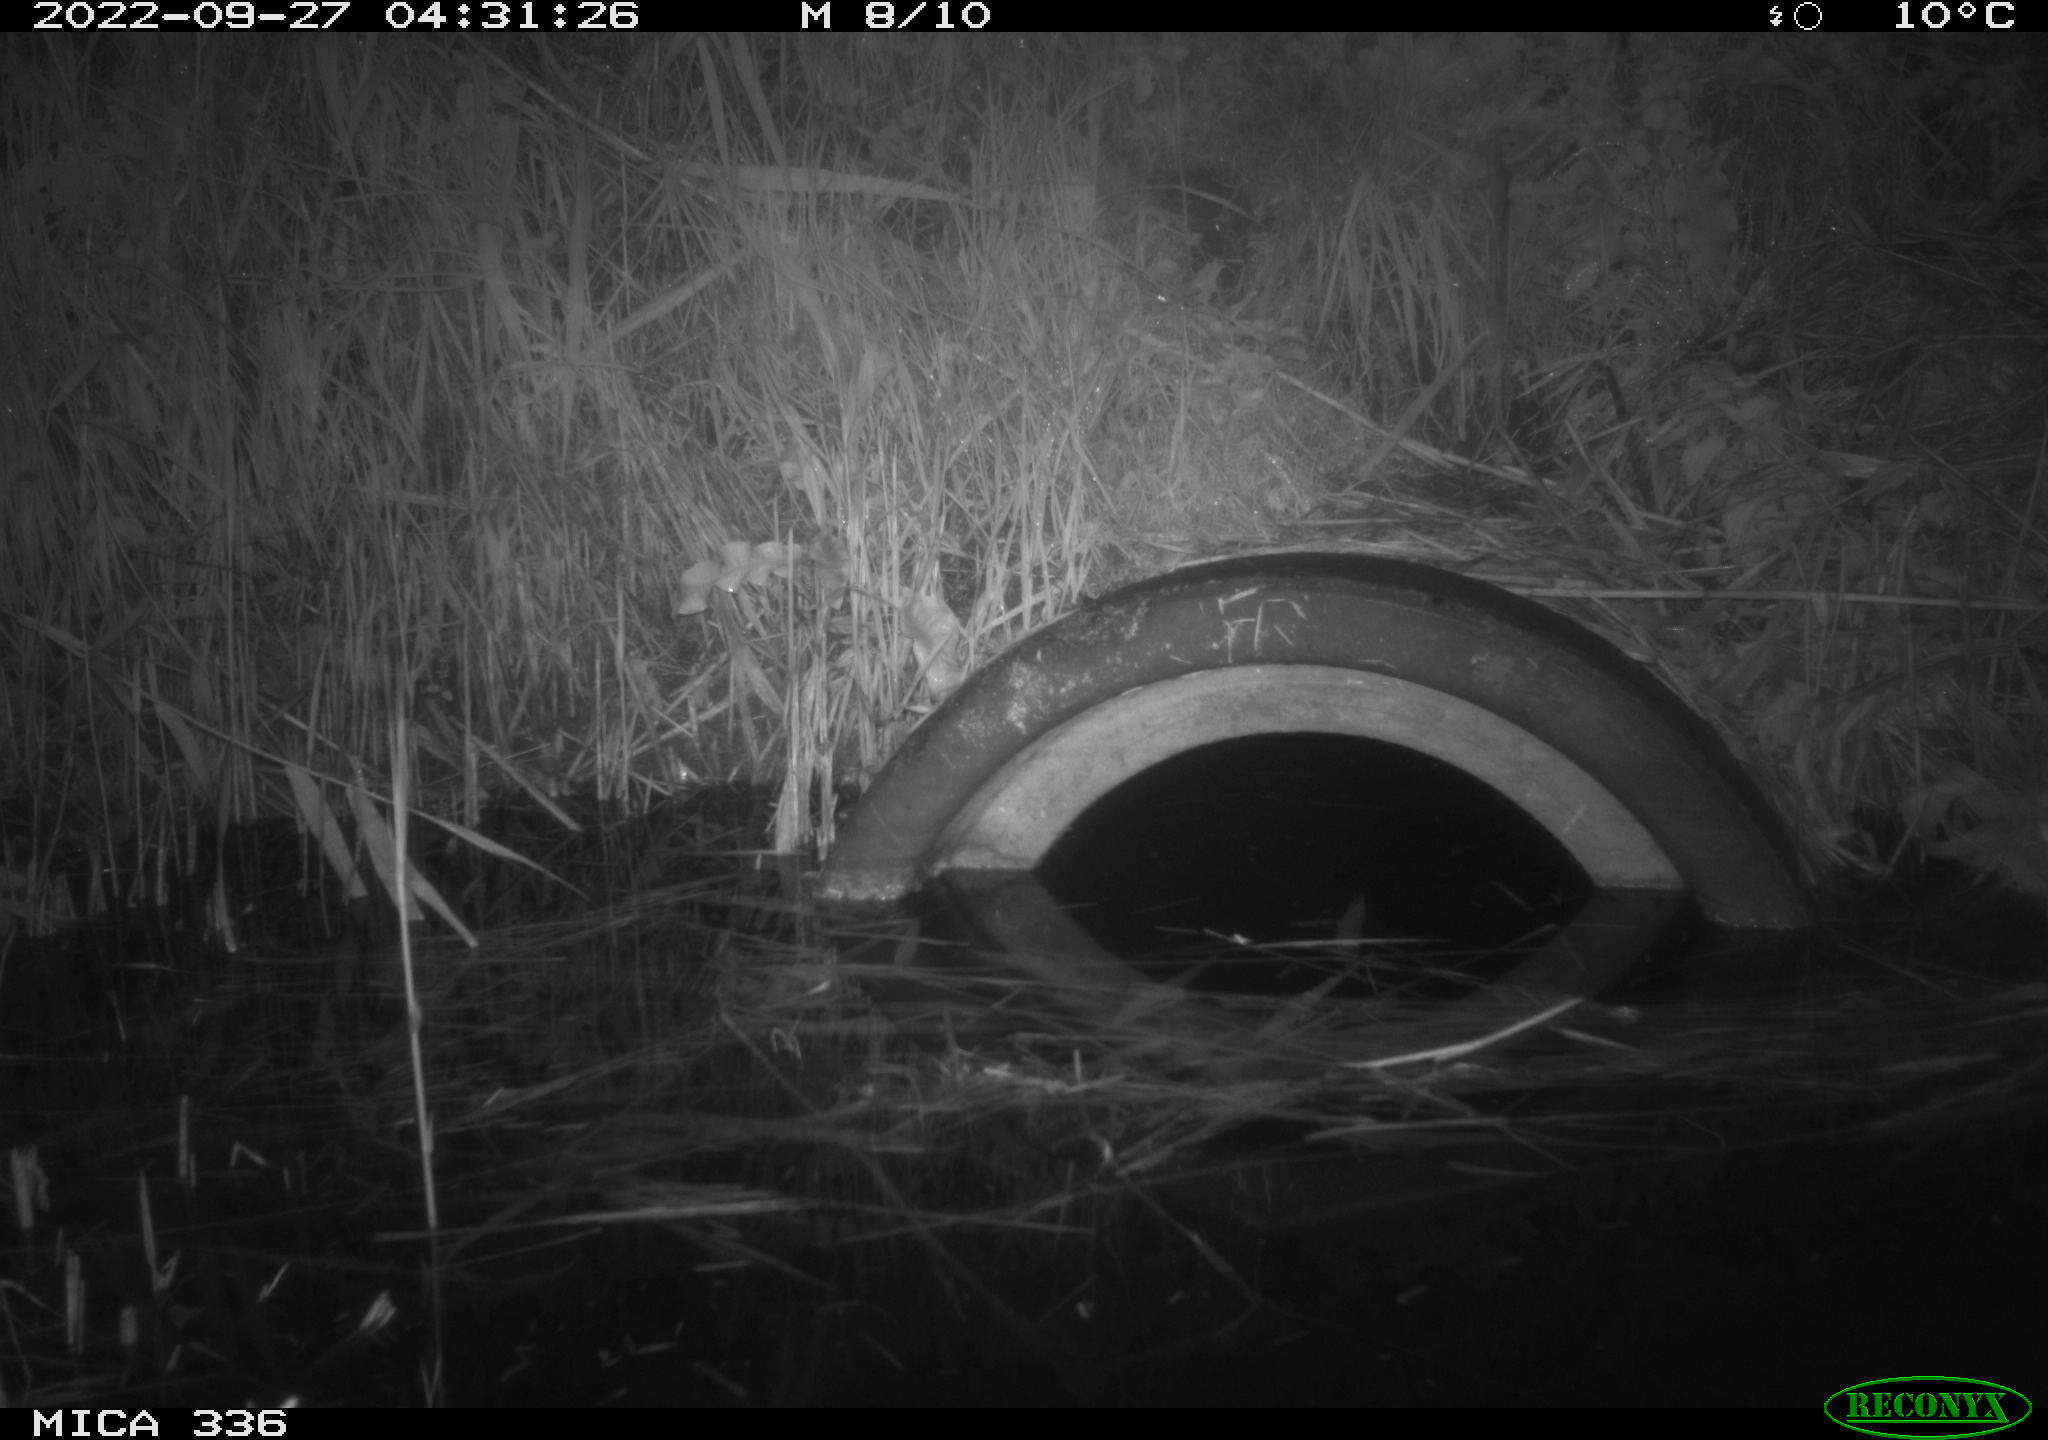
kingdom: Animalia
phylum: Chordata
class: Mammalia
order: Rodentia
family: Muridae
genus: Rattus
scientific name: Rattus norvegicus
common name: Brown rat
